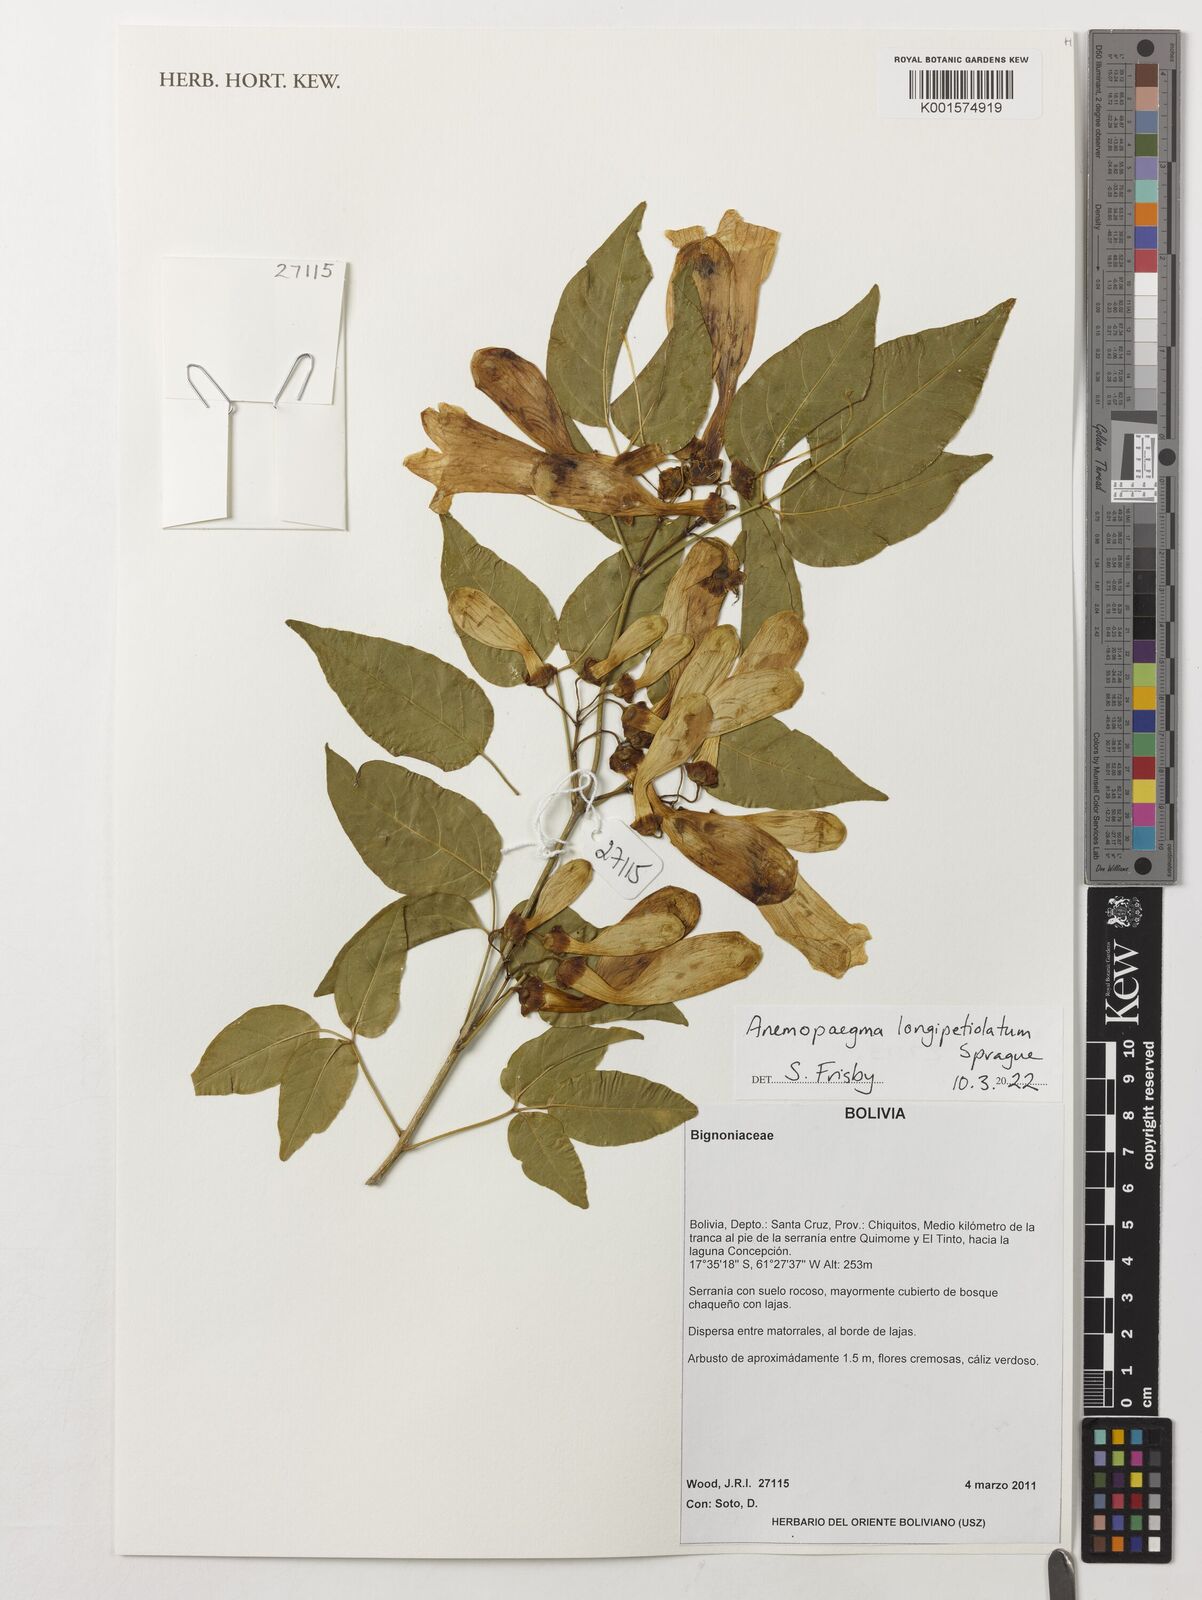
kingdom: Plantae
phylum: Tracheophyta
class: Magnoliopsida
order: Lamiales
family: Bignoniaceae
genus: Anemopaegma
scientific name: Anemopaegma longipetiolatum
